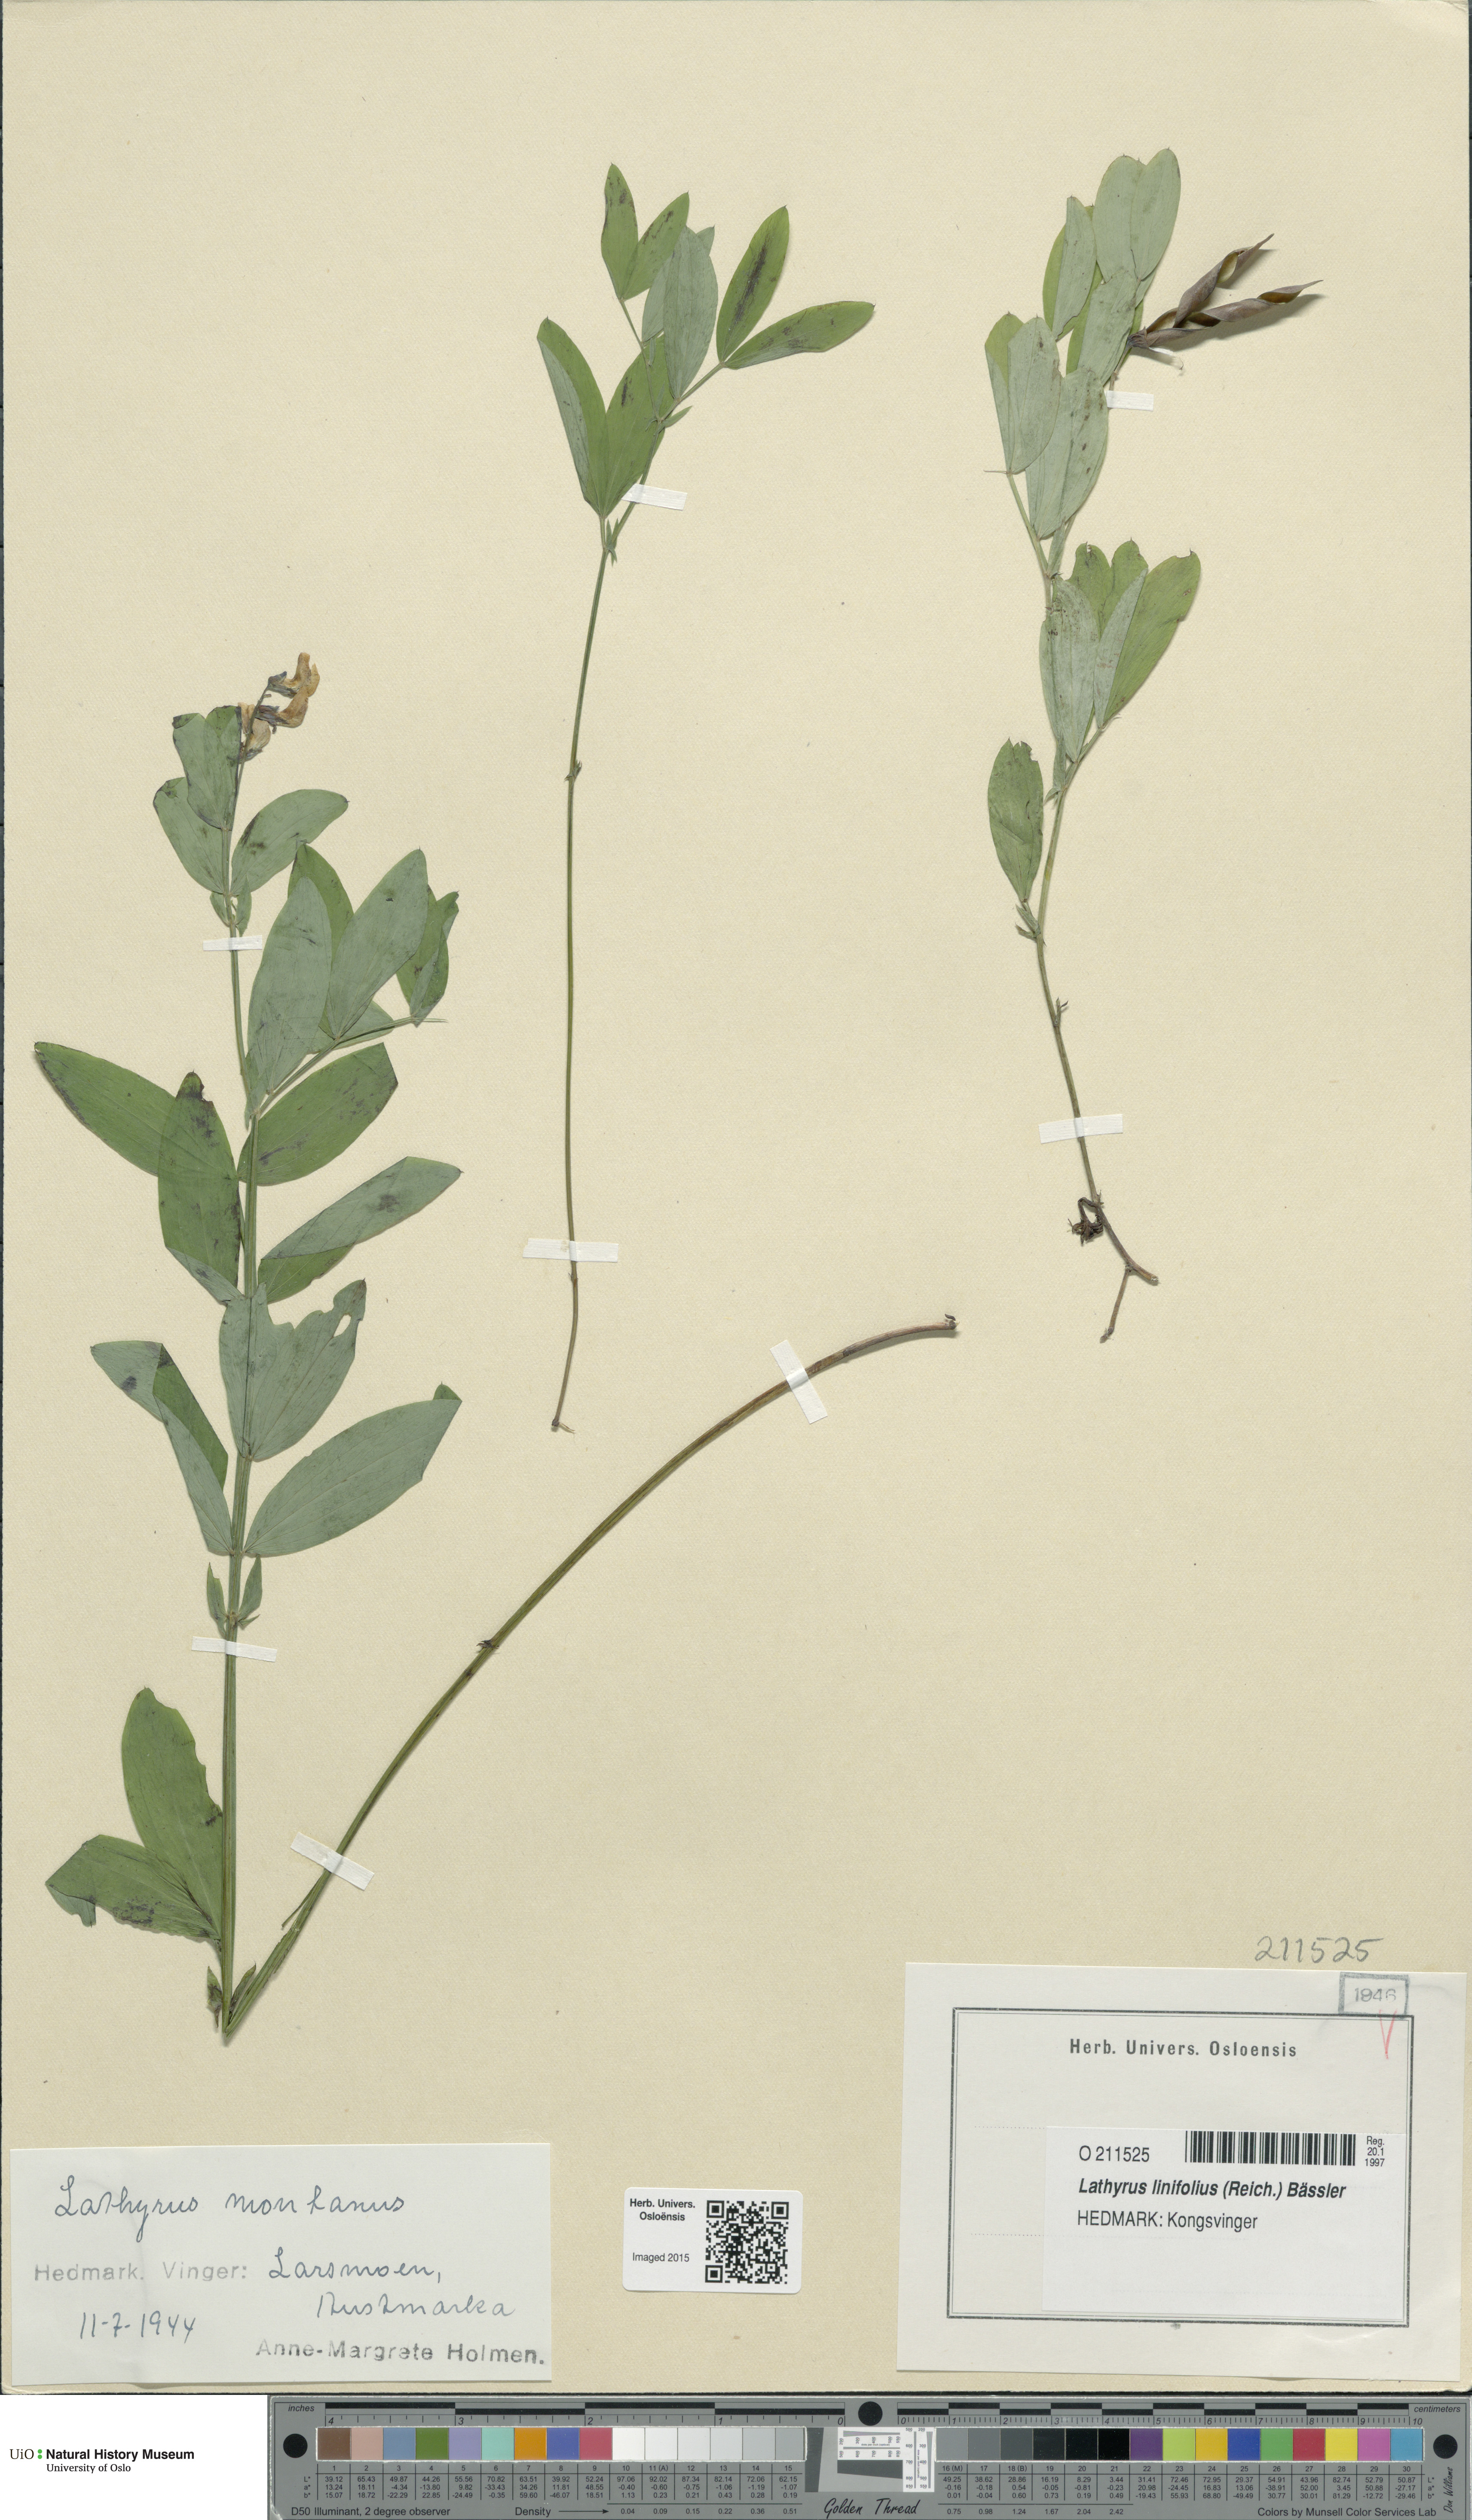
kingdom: Plantae
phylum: Tracheophyta
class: Magnoliopsida
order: Fabales
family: Fabaceae
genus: Lathyrus
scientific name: Lathyrus linifolius
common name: Bitter-vetch
